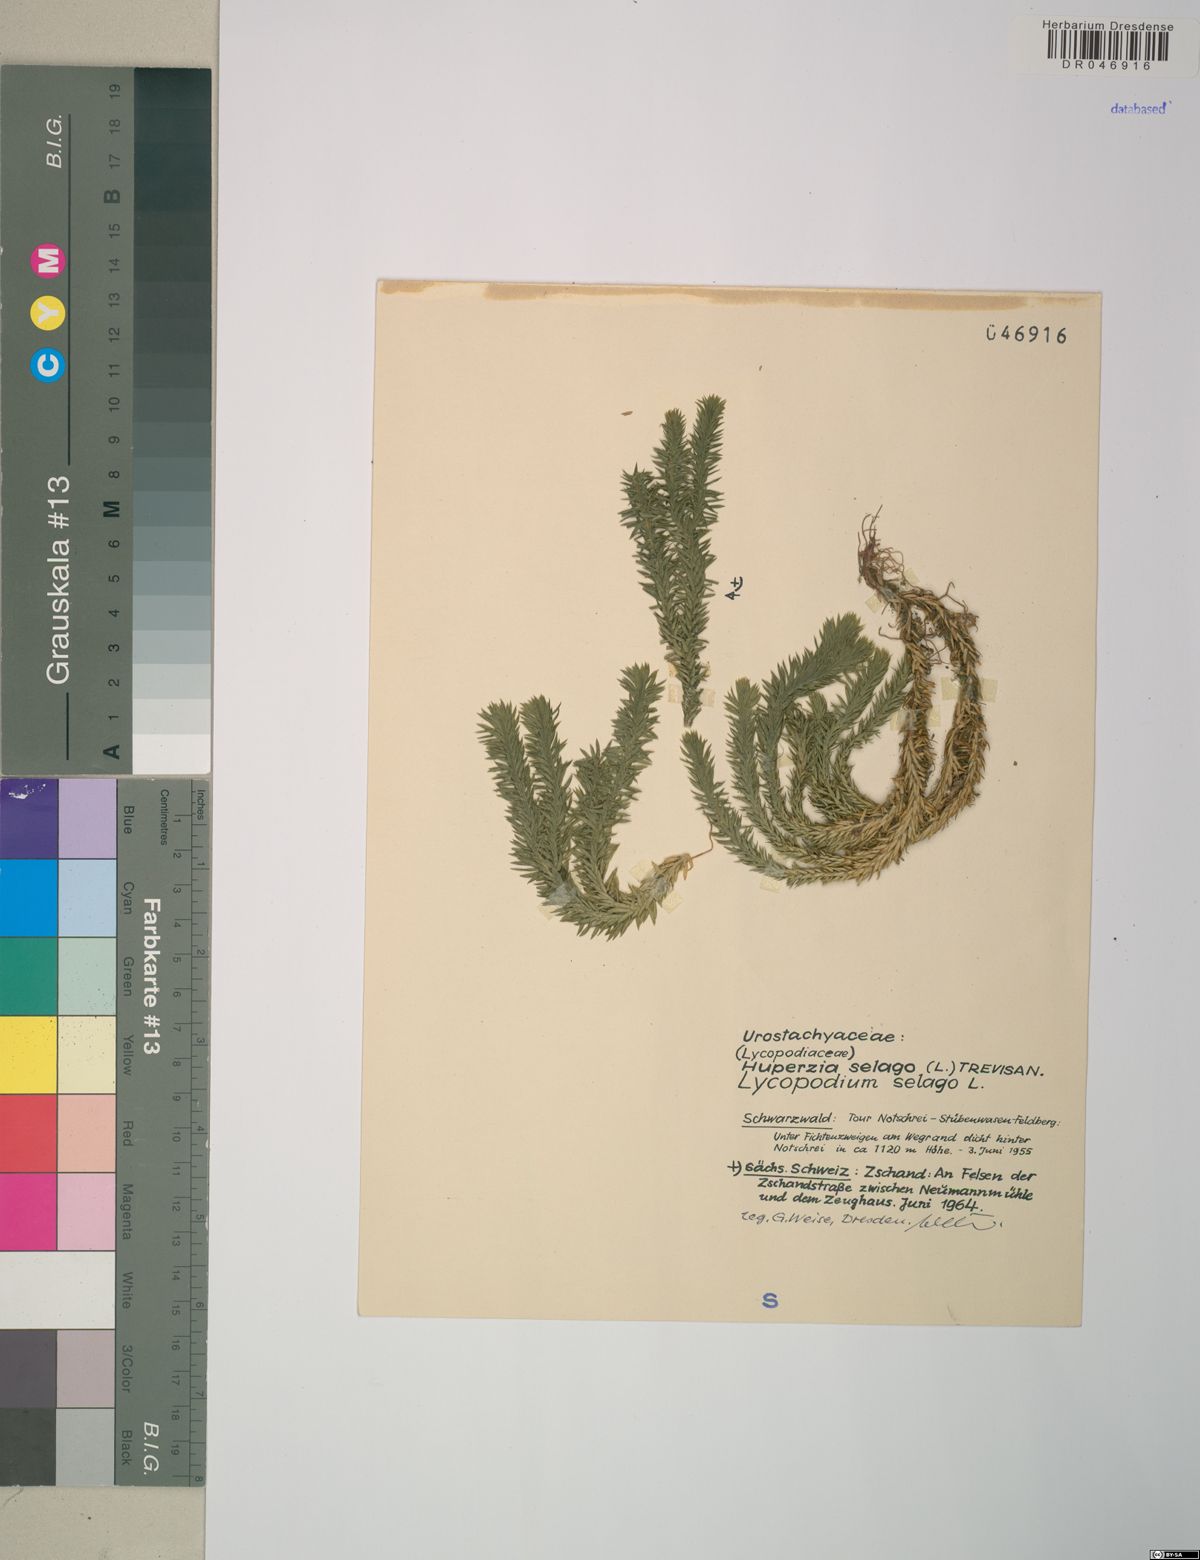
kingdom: Plantae
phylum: Tracheophyta
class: Lycopodiopsida
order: Lycopodiales
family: Lycopodiaceae
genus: Huperzia
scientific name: Huperzia selago
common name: Northern firmoss
